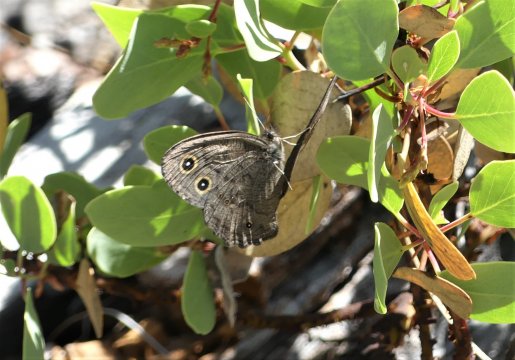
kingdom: Animalia
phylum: Arthropoda
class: Insecta
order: Lepidoptera
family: Nymphalidae
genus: Cercyonis
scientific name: Cercyonis sthenele
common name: Great Basin Wood-Nymph
